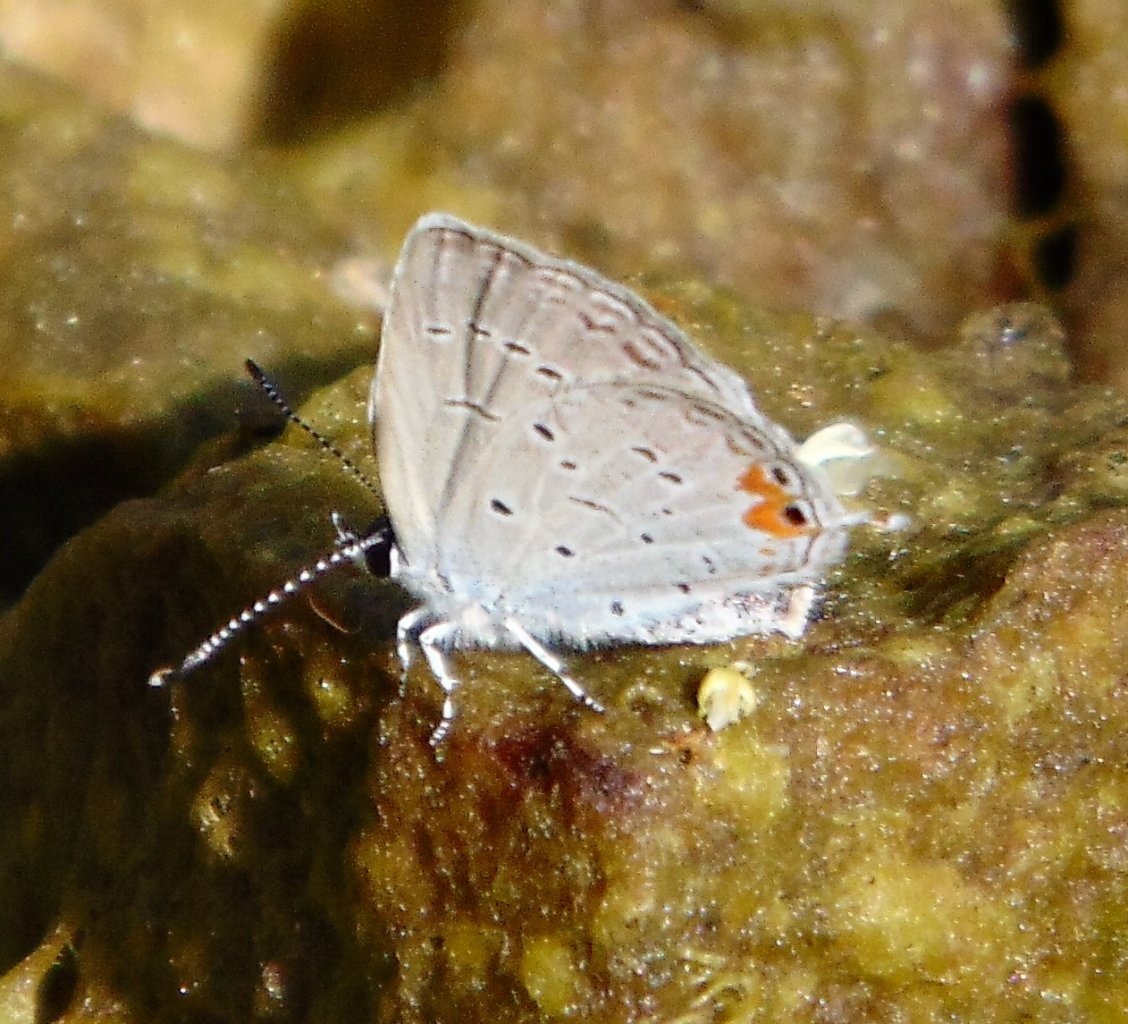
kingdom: Animalia
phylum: Arthropoda
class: Insecta
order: Lepidoptera
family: Lycaenidae
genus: Elkalyce
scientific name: Elkalyce comyntas
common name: Eastern Tailed-Blue
